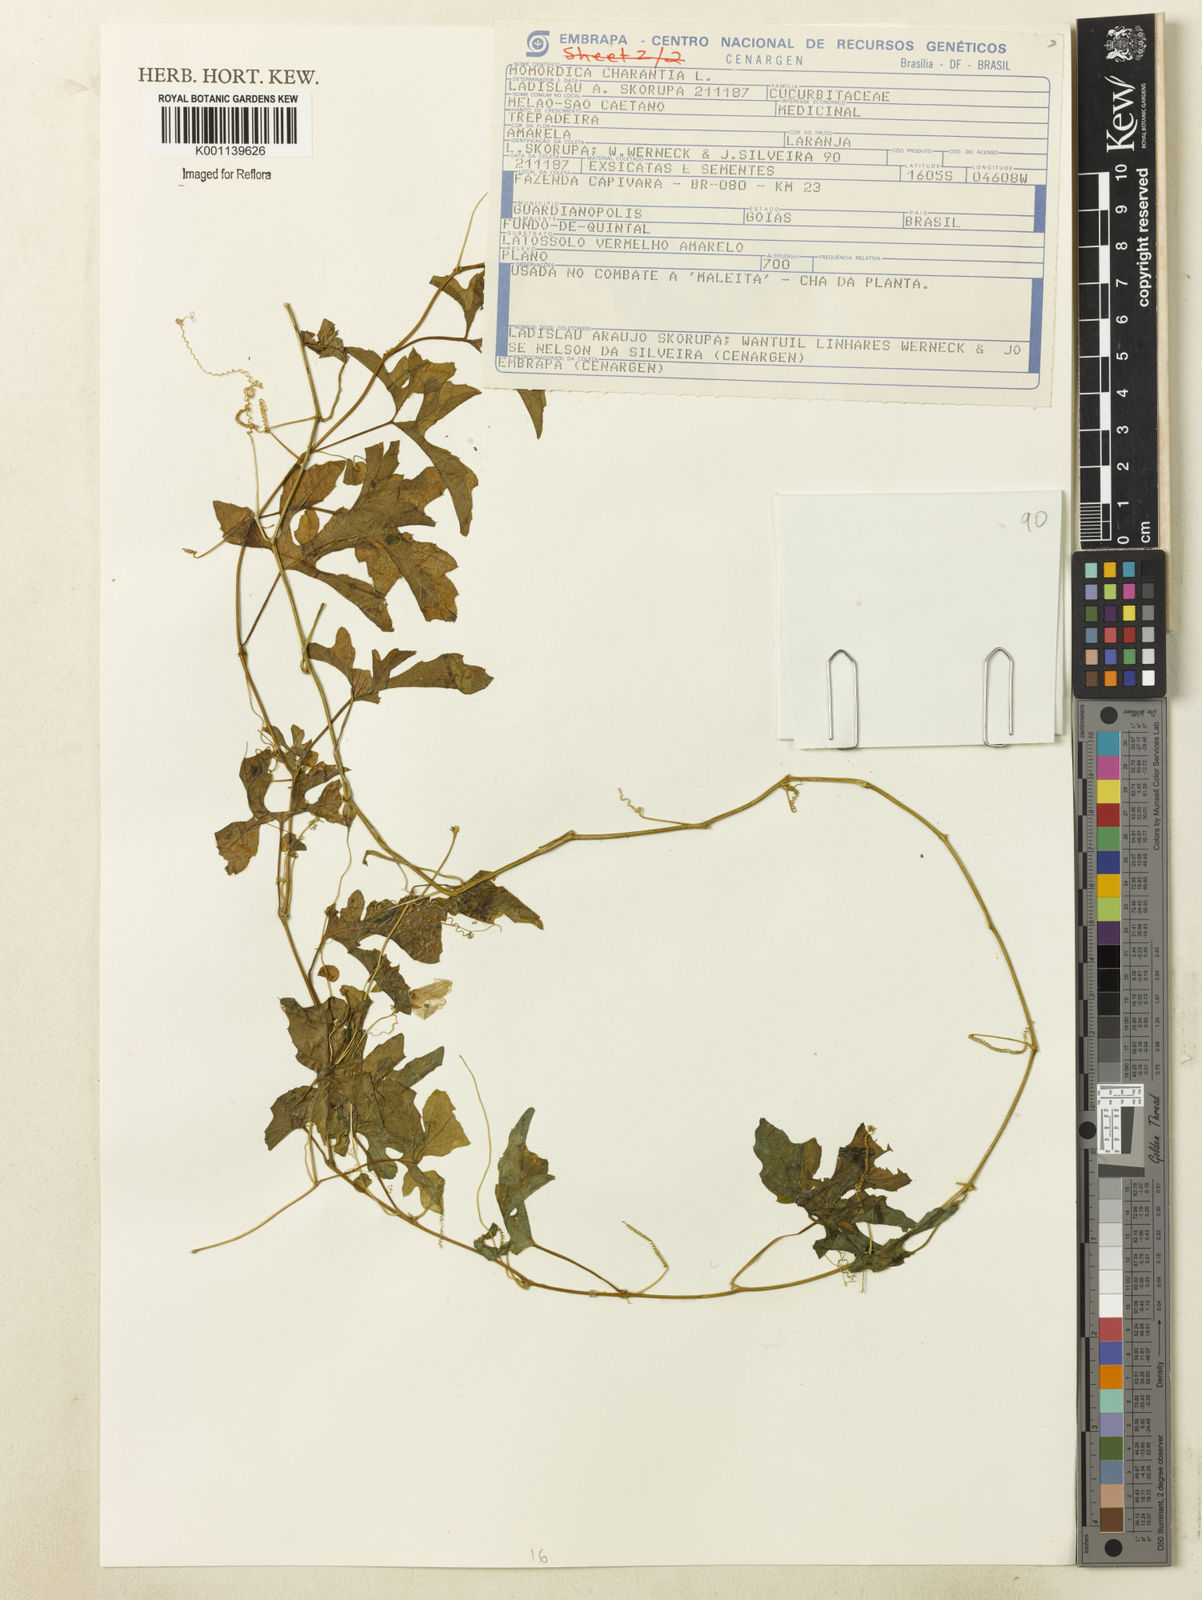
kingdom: Plantae
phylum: Tracheophyta
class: Magnoliopsida
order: Cucurbitales
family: Cucurbitaceae
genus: Momordica
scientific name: Momordica charantia
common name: Balsampear
